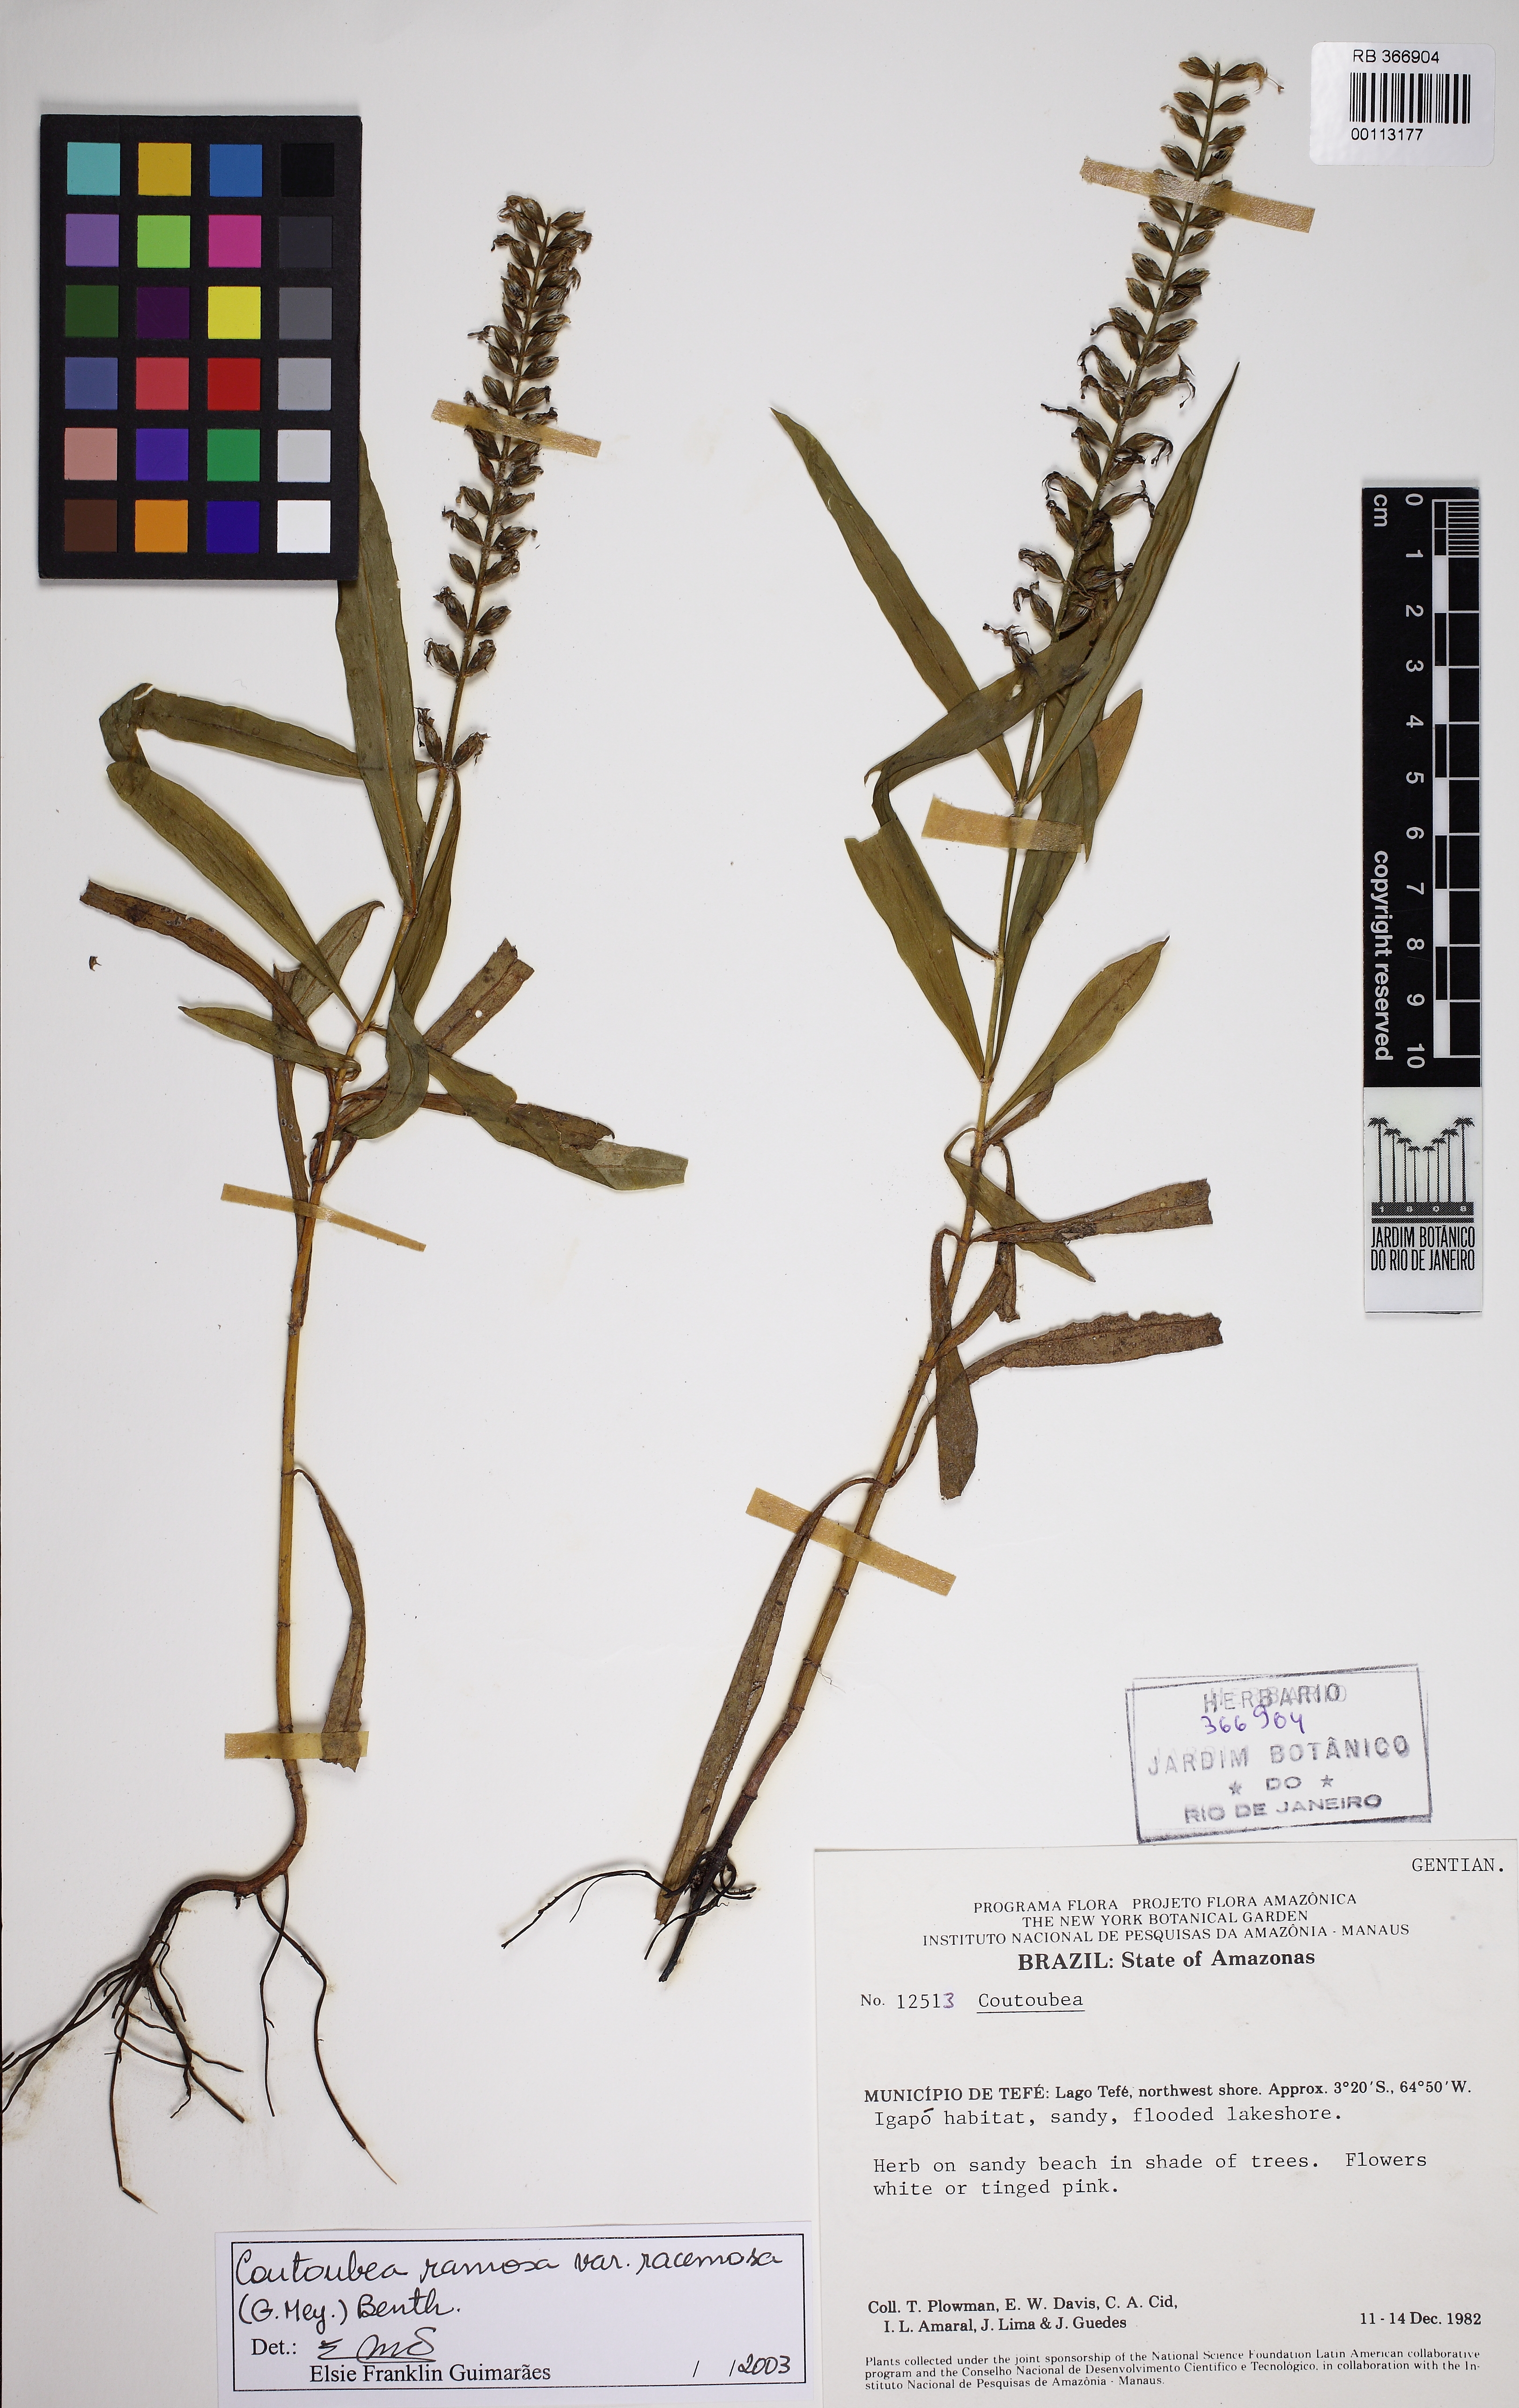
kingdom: Plantae
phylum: Tracheophyta
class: Magnoliopsida
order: Gentianales
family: Gentianaceae
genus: Coutoubea
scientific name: Coutoubea ramosa
